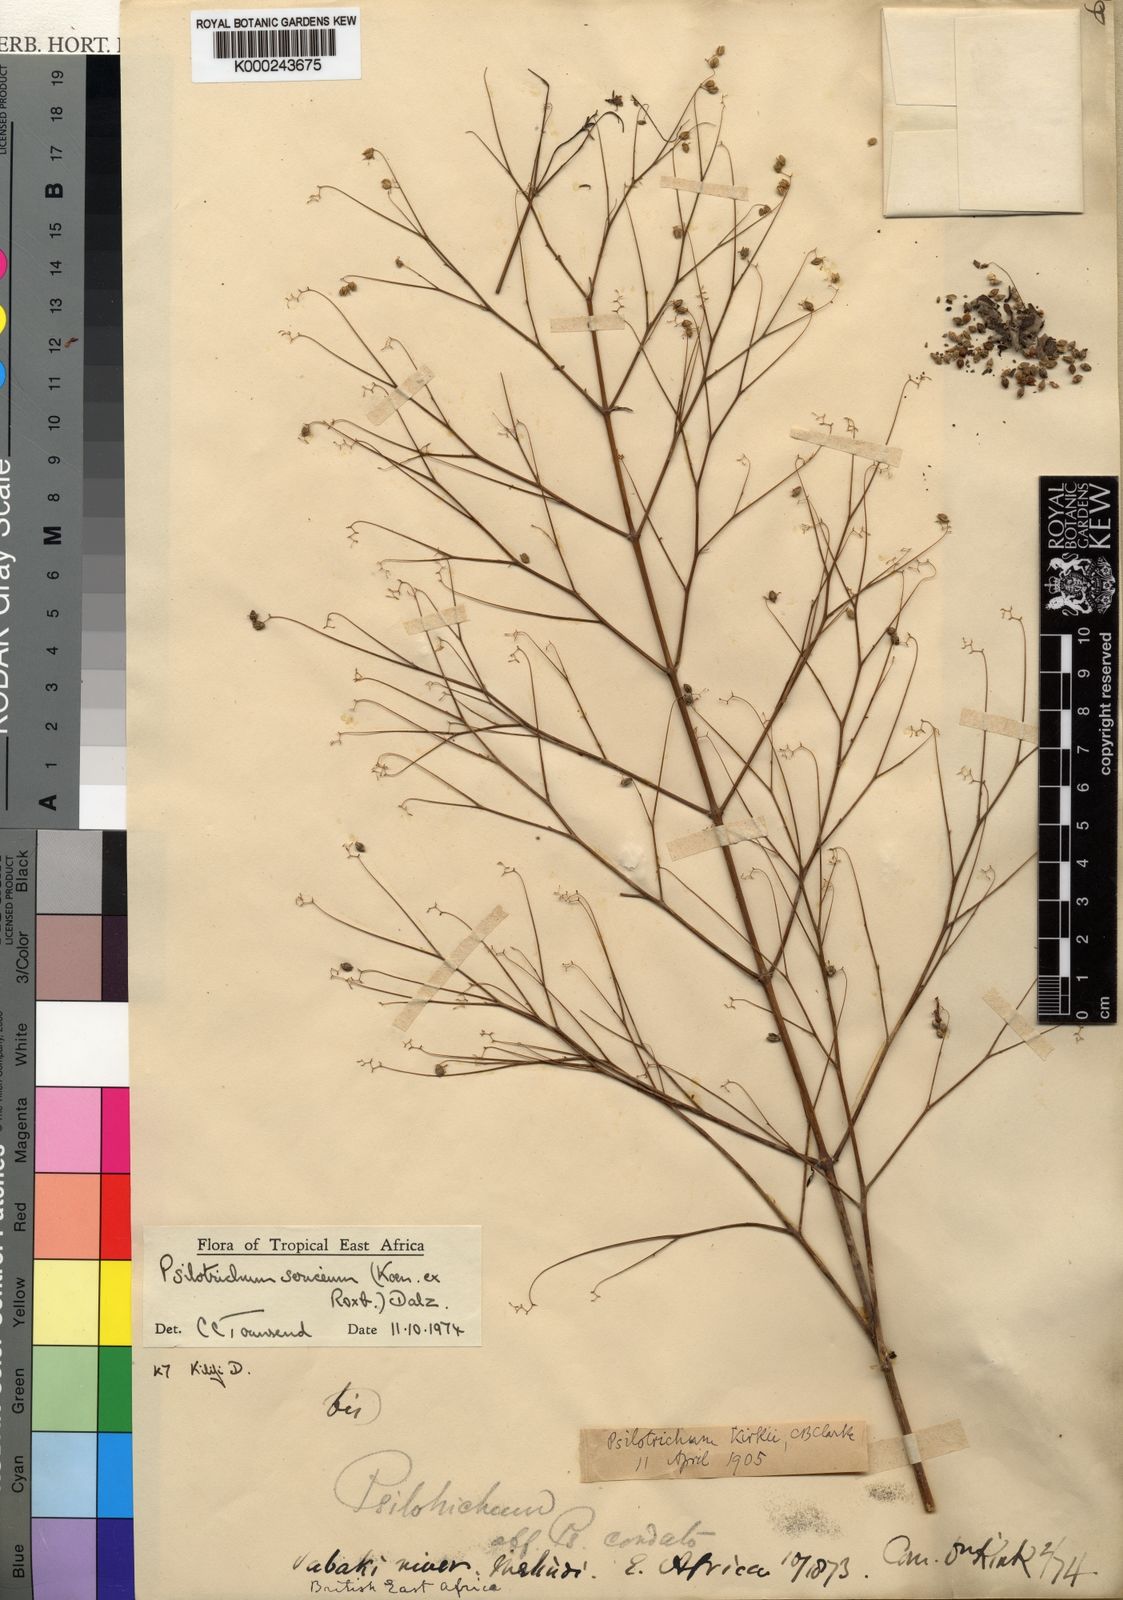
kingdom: Plantae
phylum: Tracheophyta
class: Magnoliopsida
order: Caryophyllales
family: Amaranthaceae
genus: Psilotrichum
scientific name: Psilotrichum sericeum
